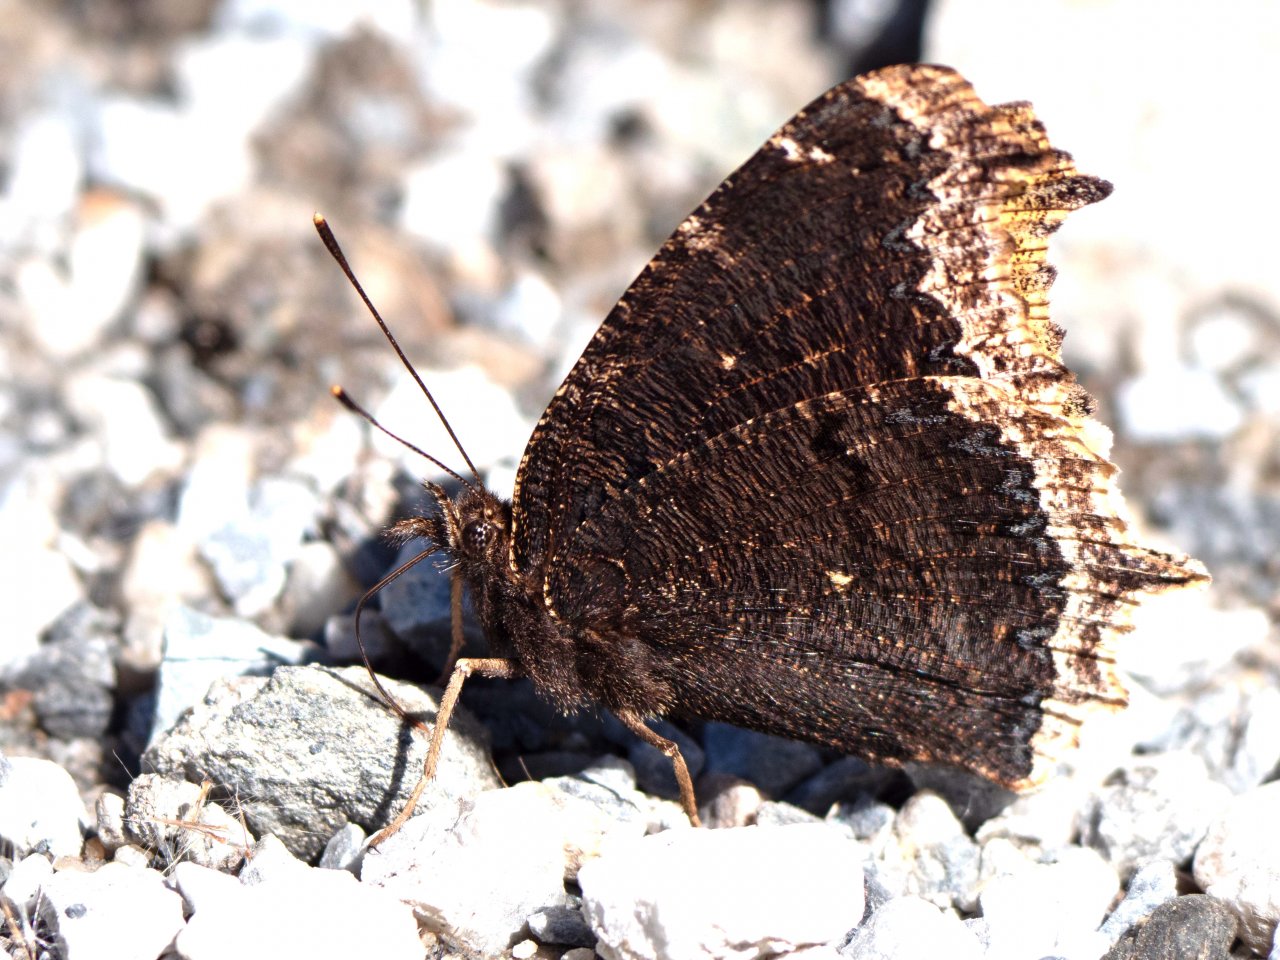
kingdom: Animalia
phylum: Arthropoda
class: Insecta
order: Lepidoptera
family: Nymphalidae
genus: Nymphalis
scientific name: Nymphalis antiopa
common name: Mourning Cloak
